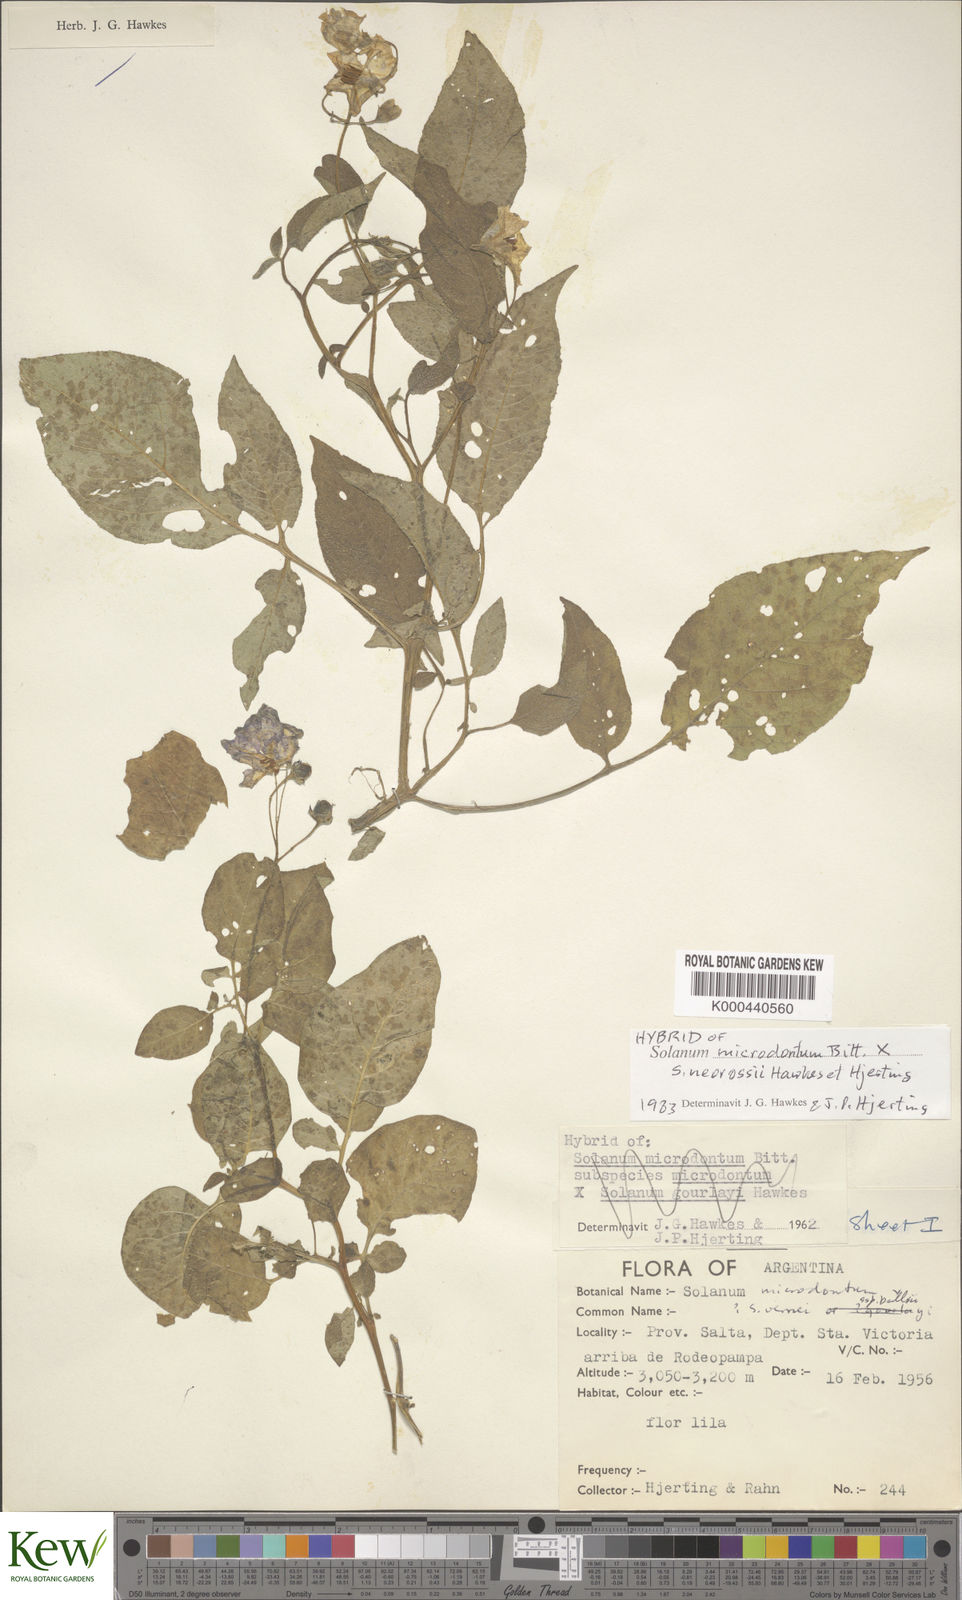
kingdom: Plantae
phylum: Tracheophyta
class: Magnoliopsida
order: Solanales
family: Solanaceae
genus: Solanum
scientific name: Solanum microdontum
